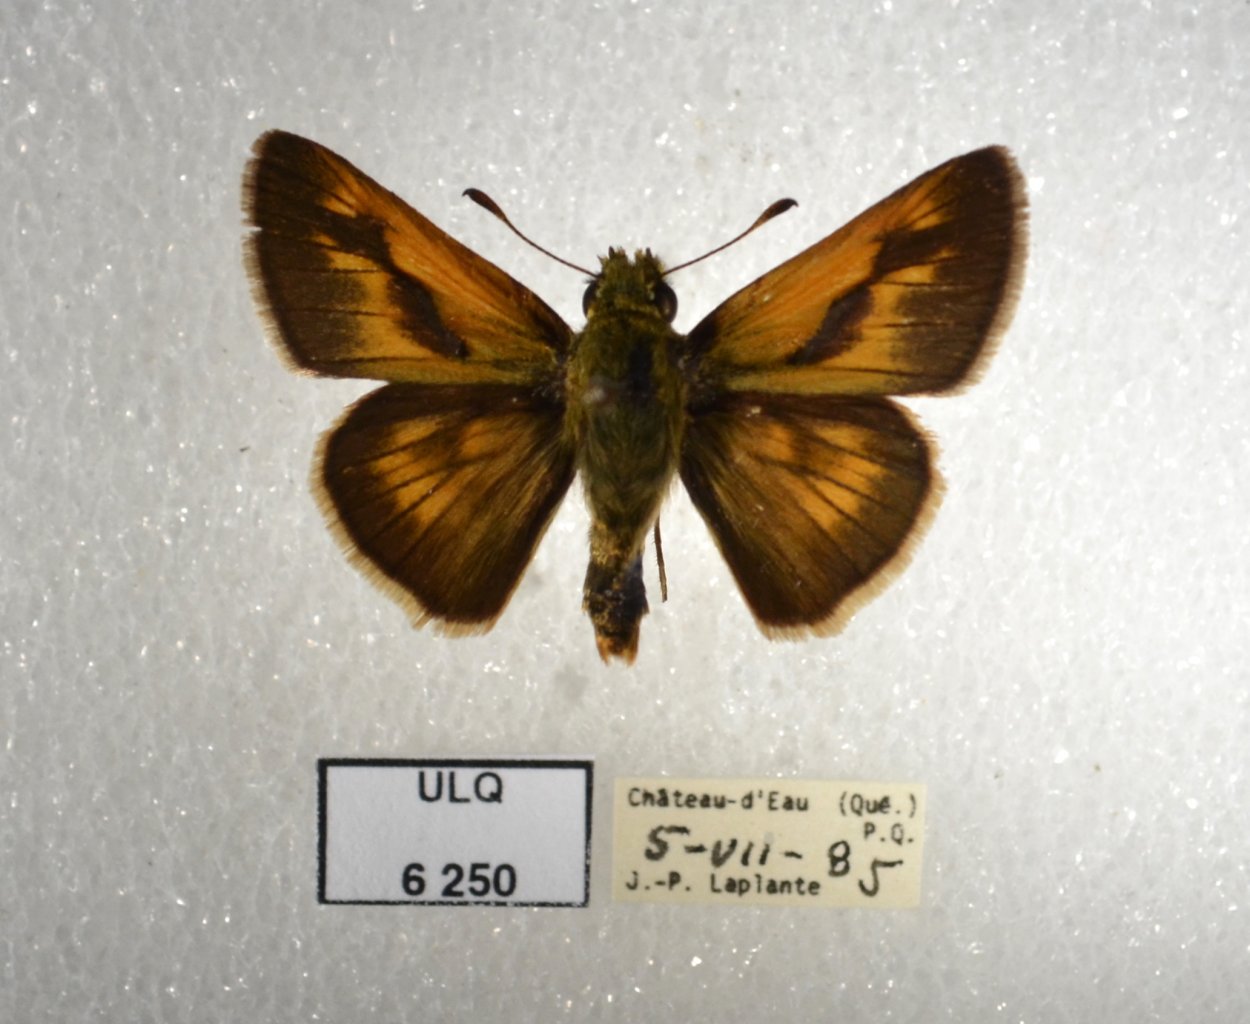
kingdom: Animalia
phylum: Arthropoda
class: Insecta
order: Lepidoptera
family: Hesperiidae
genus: Polites
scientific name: Polites
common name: Long Dash Skipper
